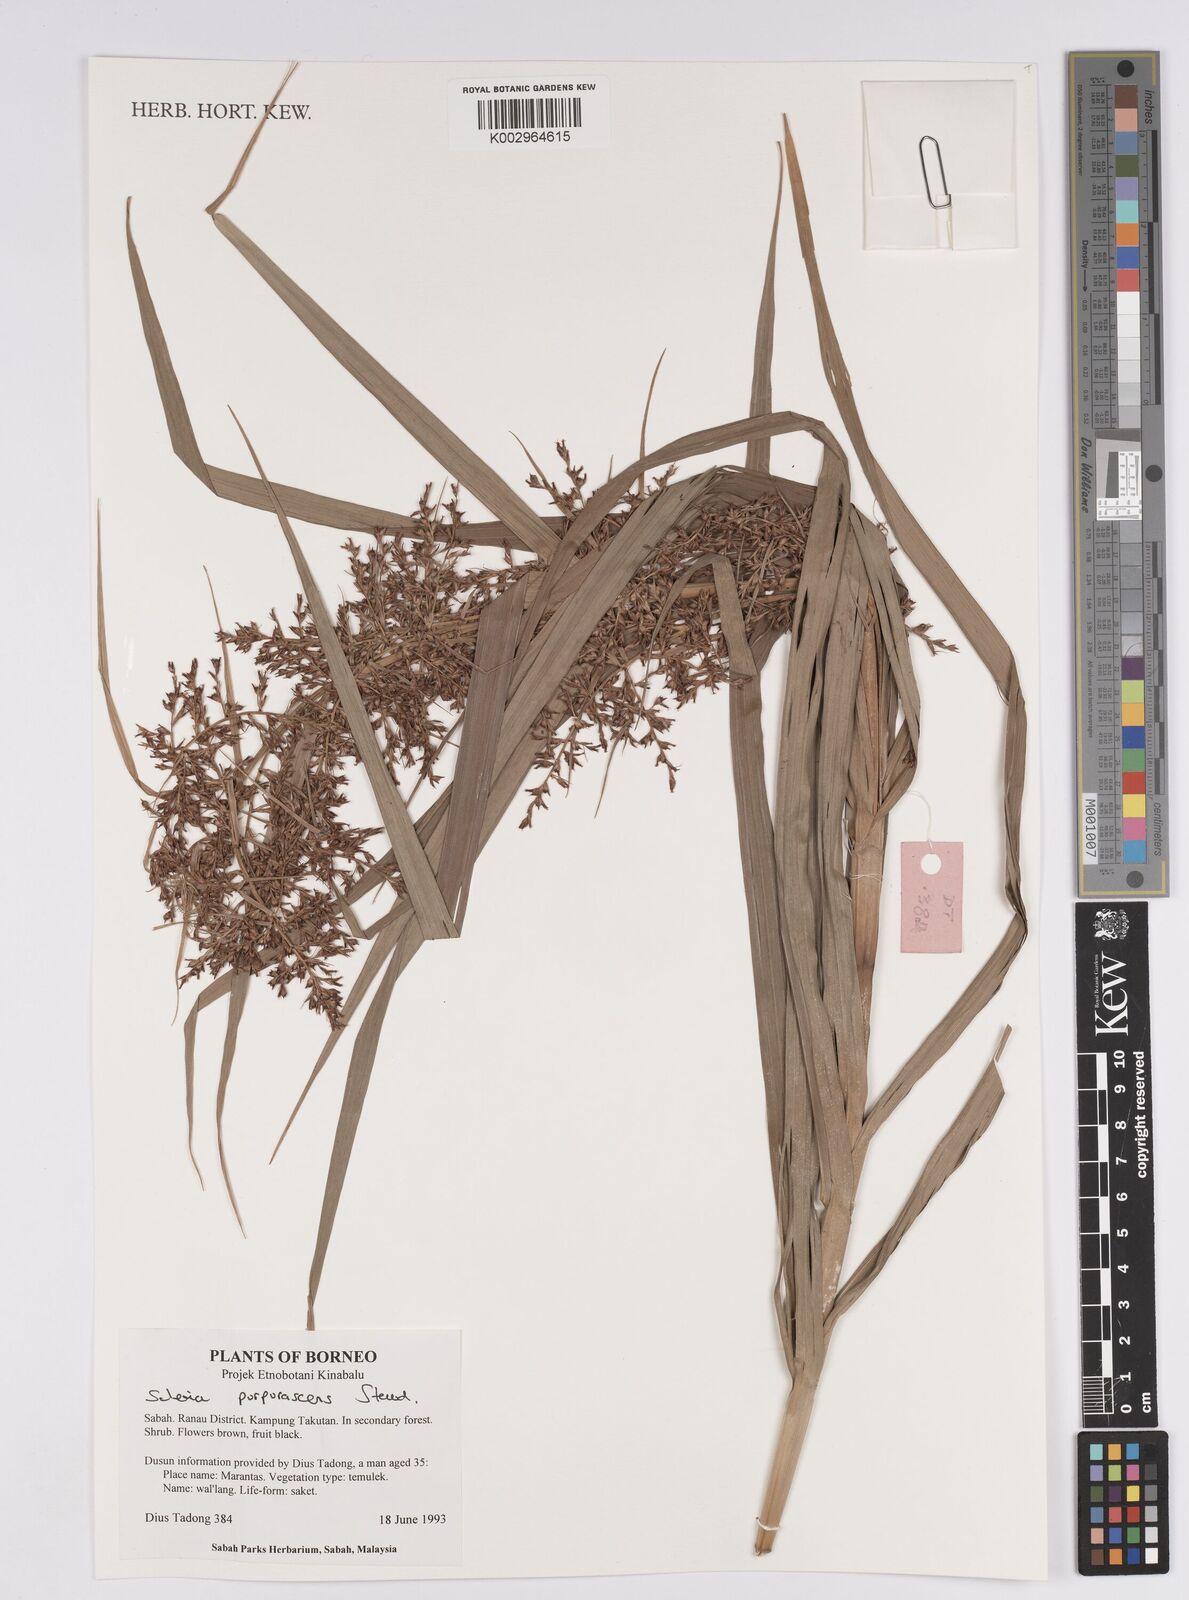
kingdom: Plantae
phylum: Tracheophyta
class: Liliopsida
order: Poales
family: Cyperaceae
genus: Scleria
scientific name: Scleria purpurascens
